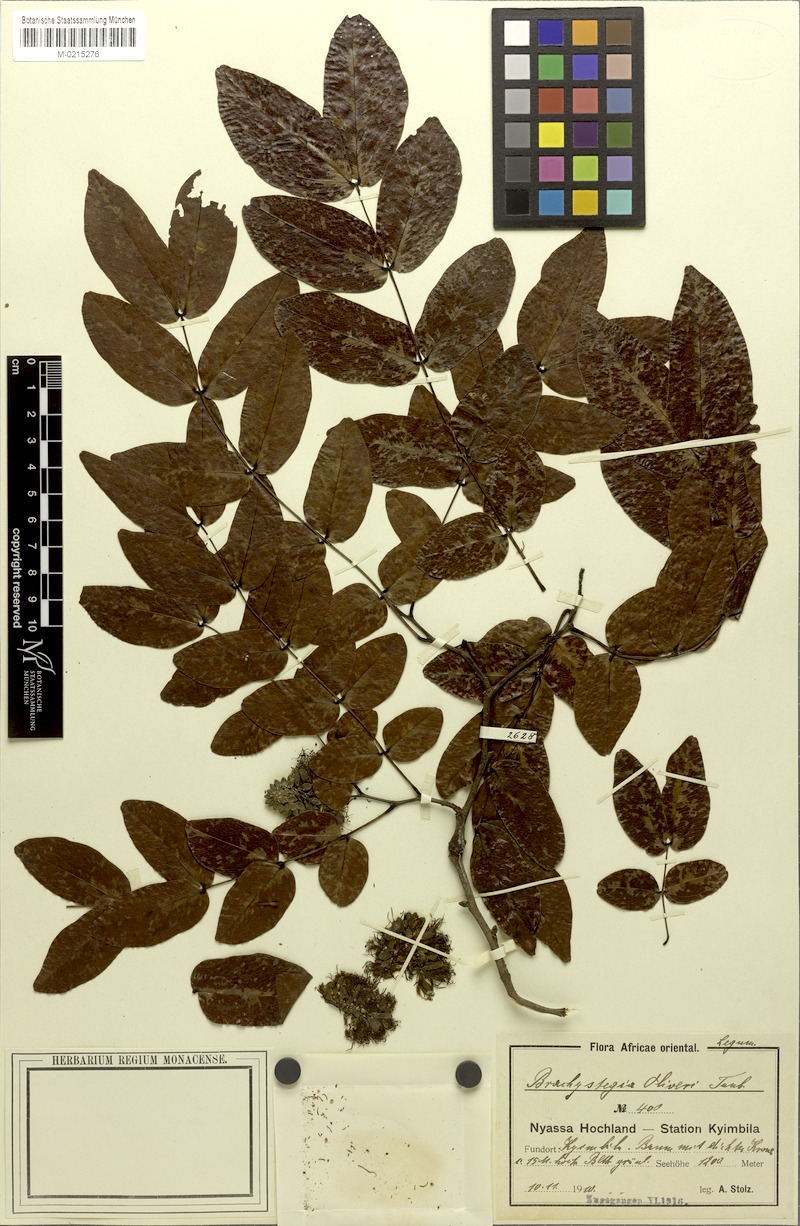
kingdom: Plantae
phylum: Tracheophyta
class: Magnoliopsida
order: Fabales
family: Fabaceae
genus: Brachystegia
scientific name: Brachystegia spiciformis
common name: Zebrawood
